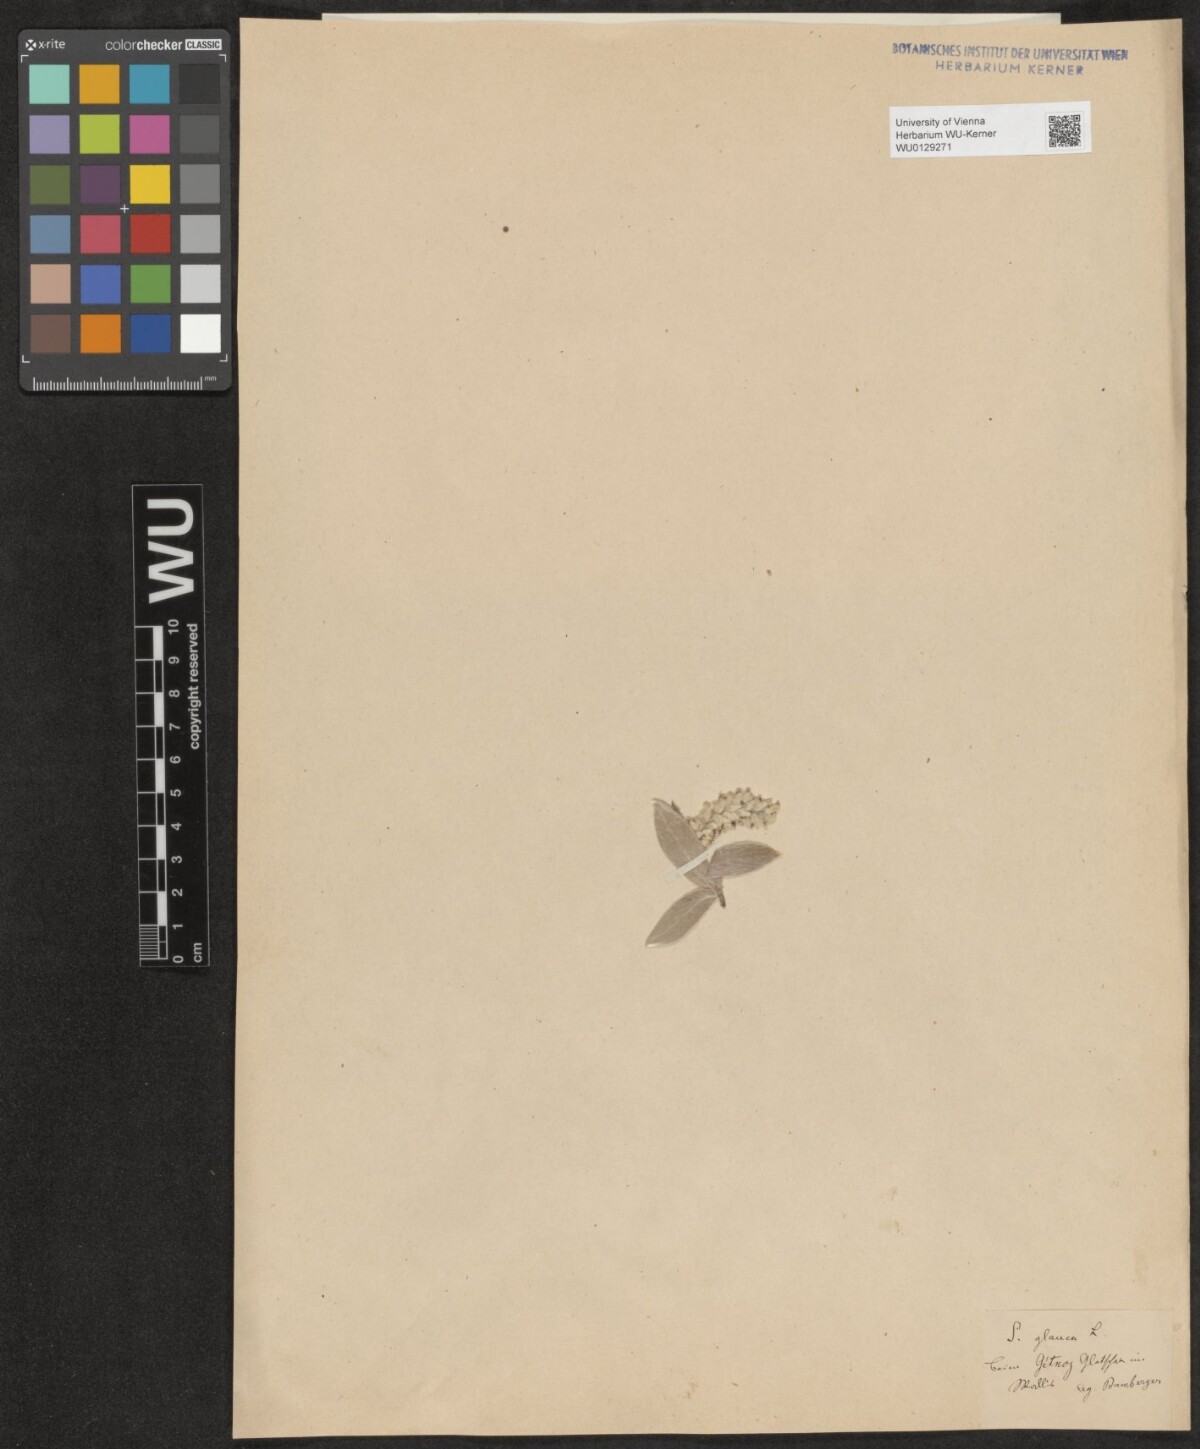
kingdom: Plantae
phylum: Tracheophyta
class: Magnoliopsida
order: Malpighiales
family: Salicaceae
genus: Salix
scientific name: Salix glauca
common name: Glaucous willow
